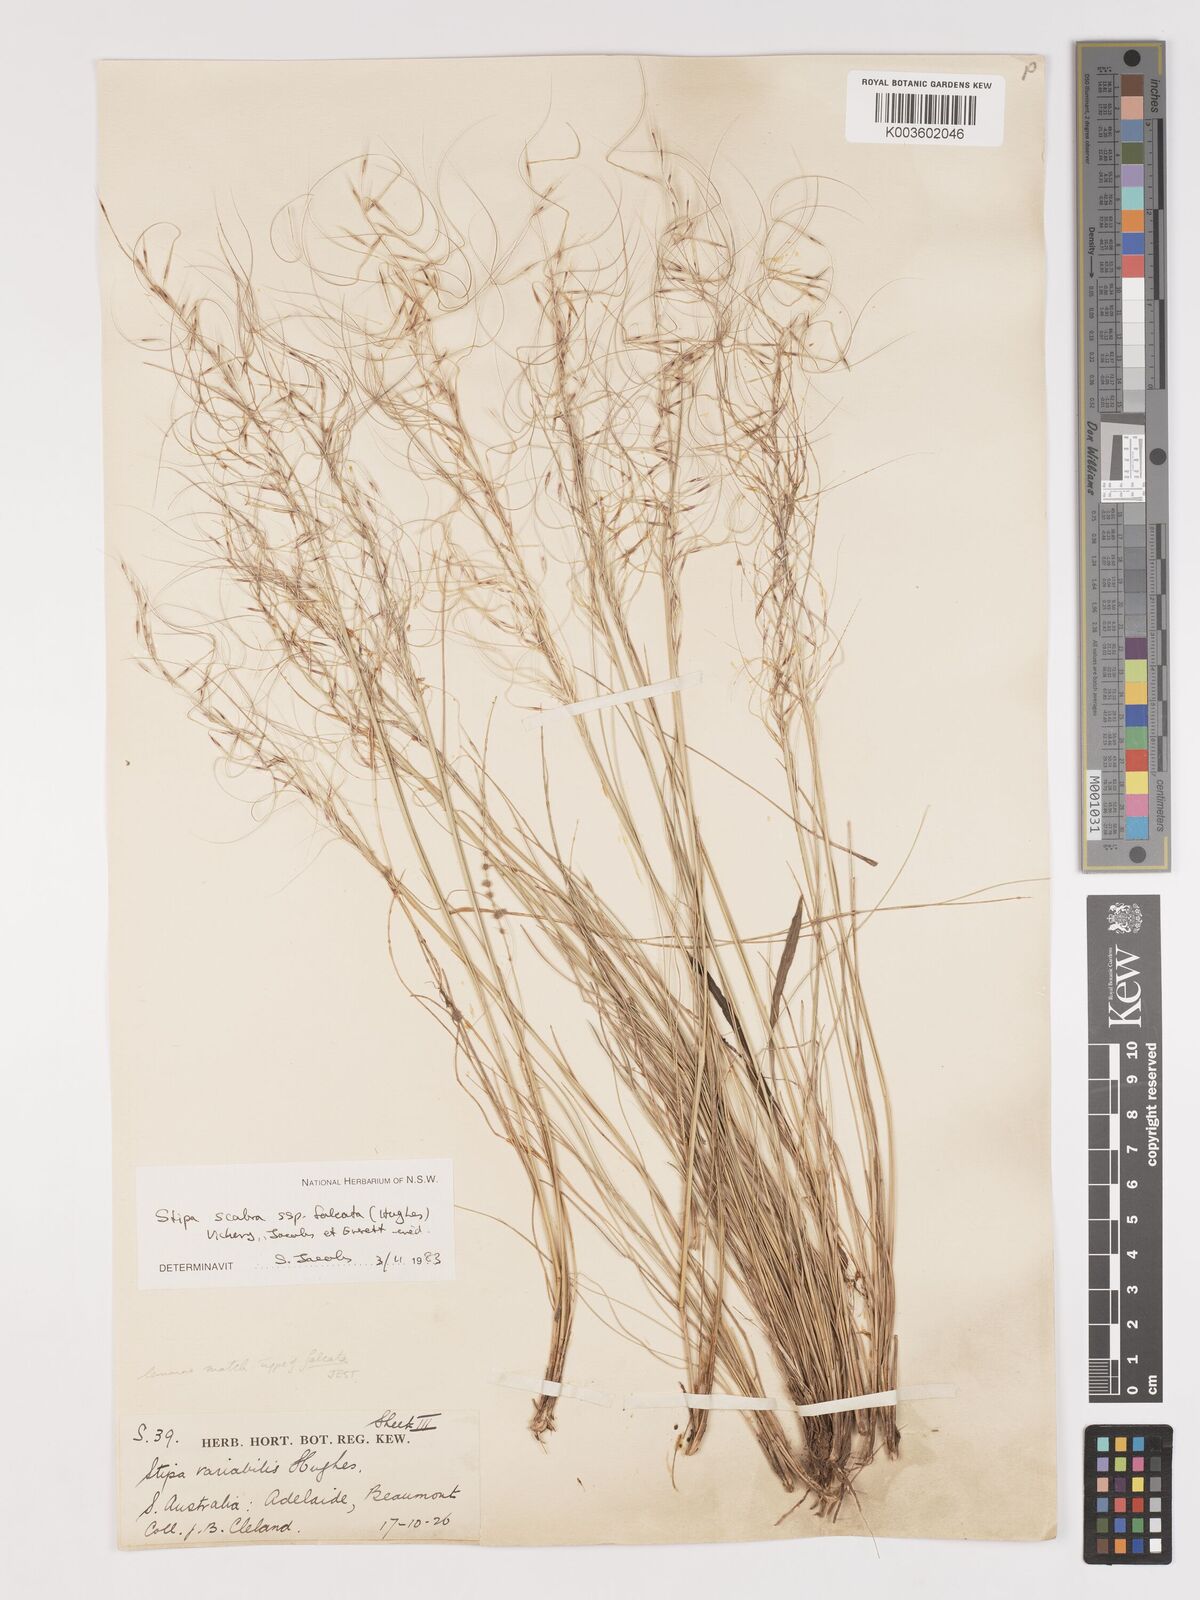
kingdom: Plantae
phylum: Tracheophyta
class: Liliopsida
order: Poales
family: Poaceae
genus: Austrostipa
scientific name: Austrostipa scabra
